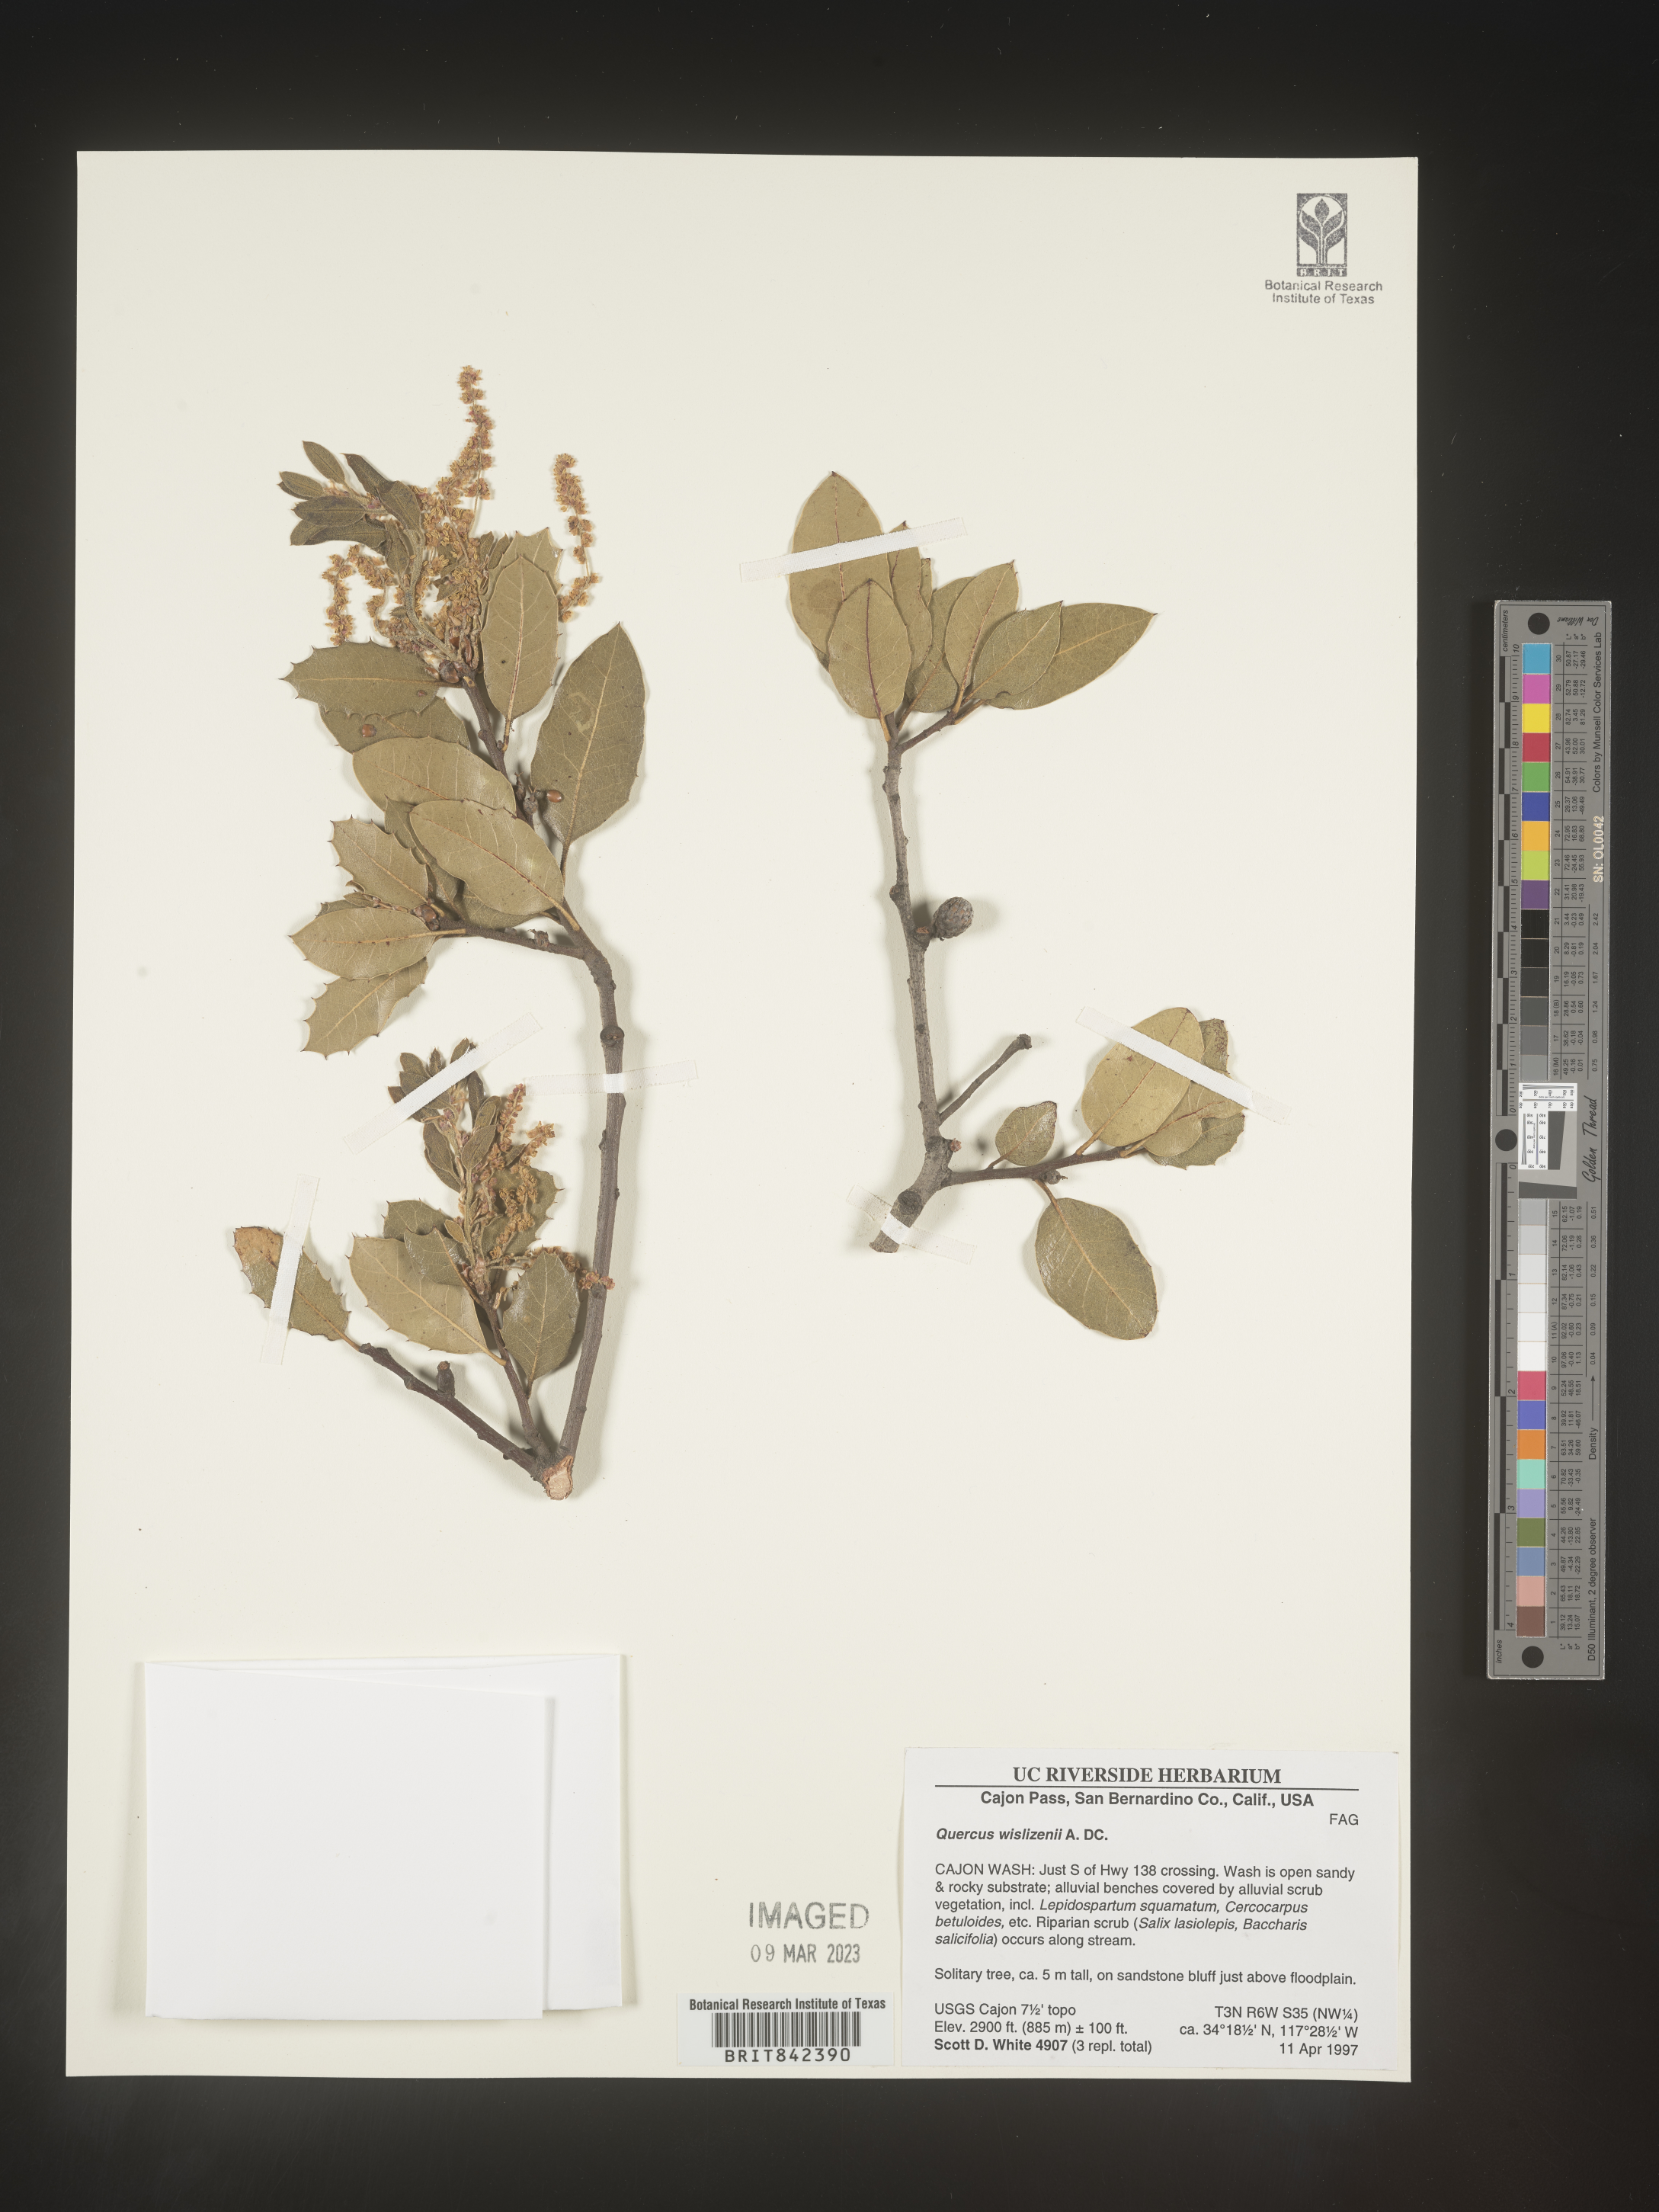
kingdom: Plantae
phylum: Tracheophyta
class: Magnoliopsida
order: Fagales
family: Fagaceae
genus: Quercus
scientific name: Quercus wislizeni
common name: Interior live oak
